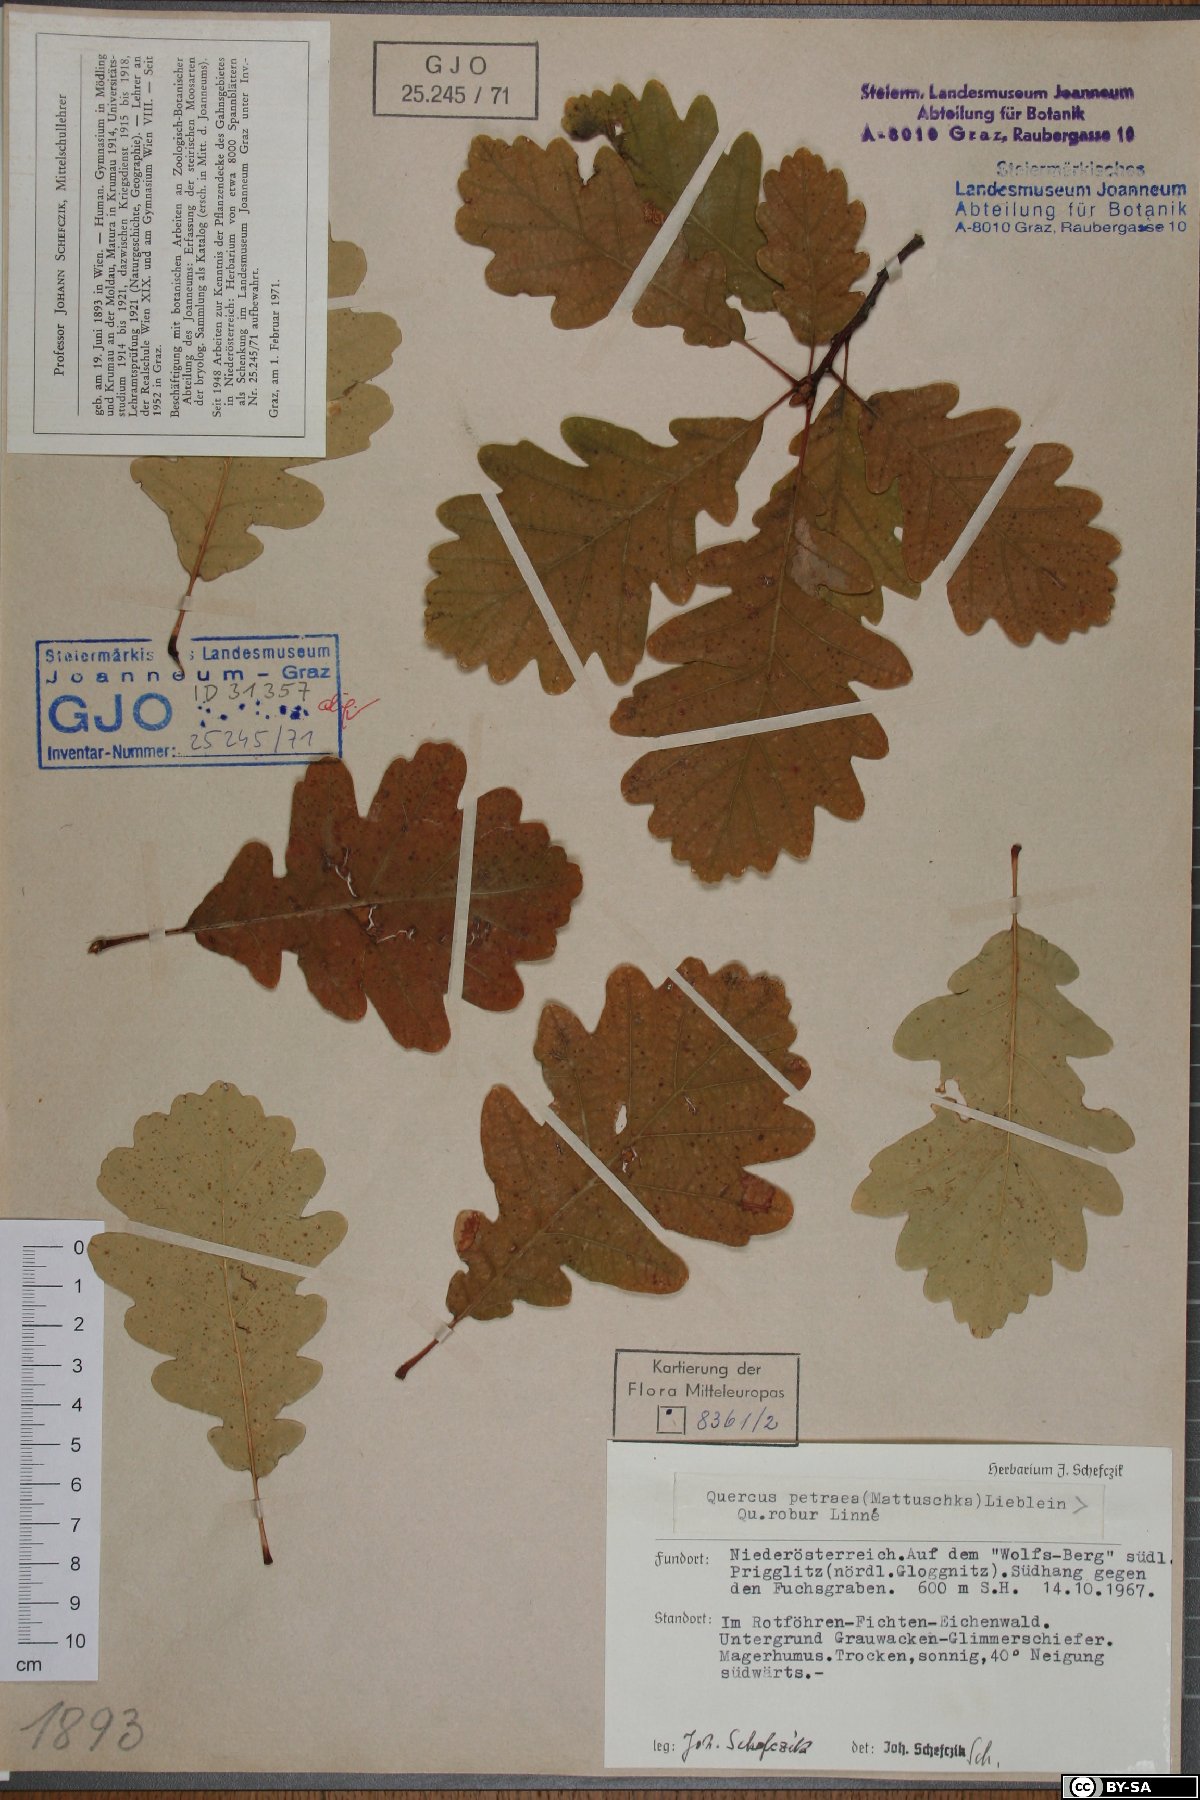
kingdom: Plantae
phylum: Tracheophyta
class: Magnoliopsida
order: Fagales
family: Fagaceae
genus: Quercus
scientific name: Quercus petraea
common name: Sessile oak
